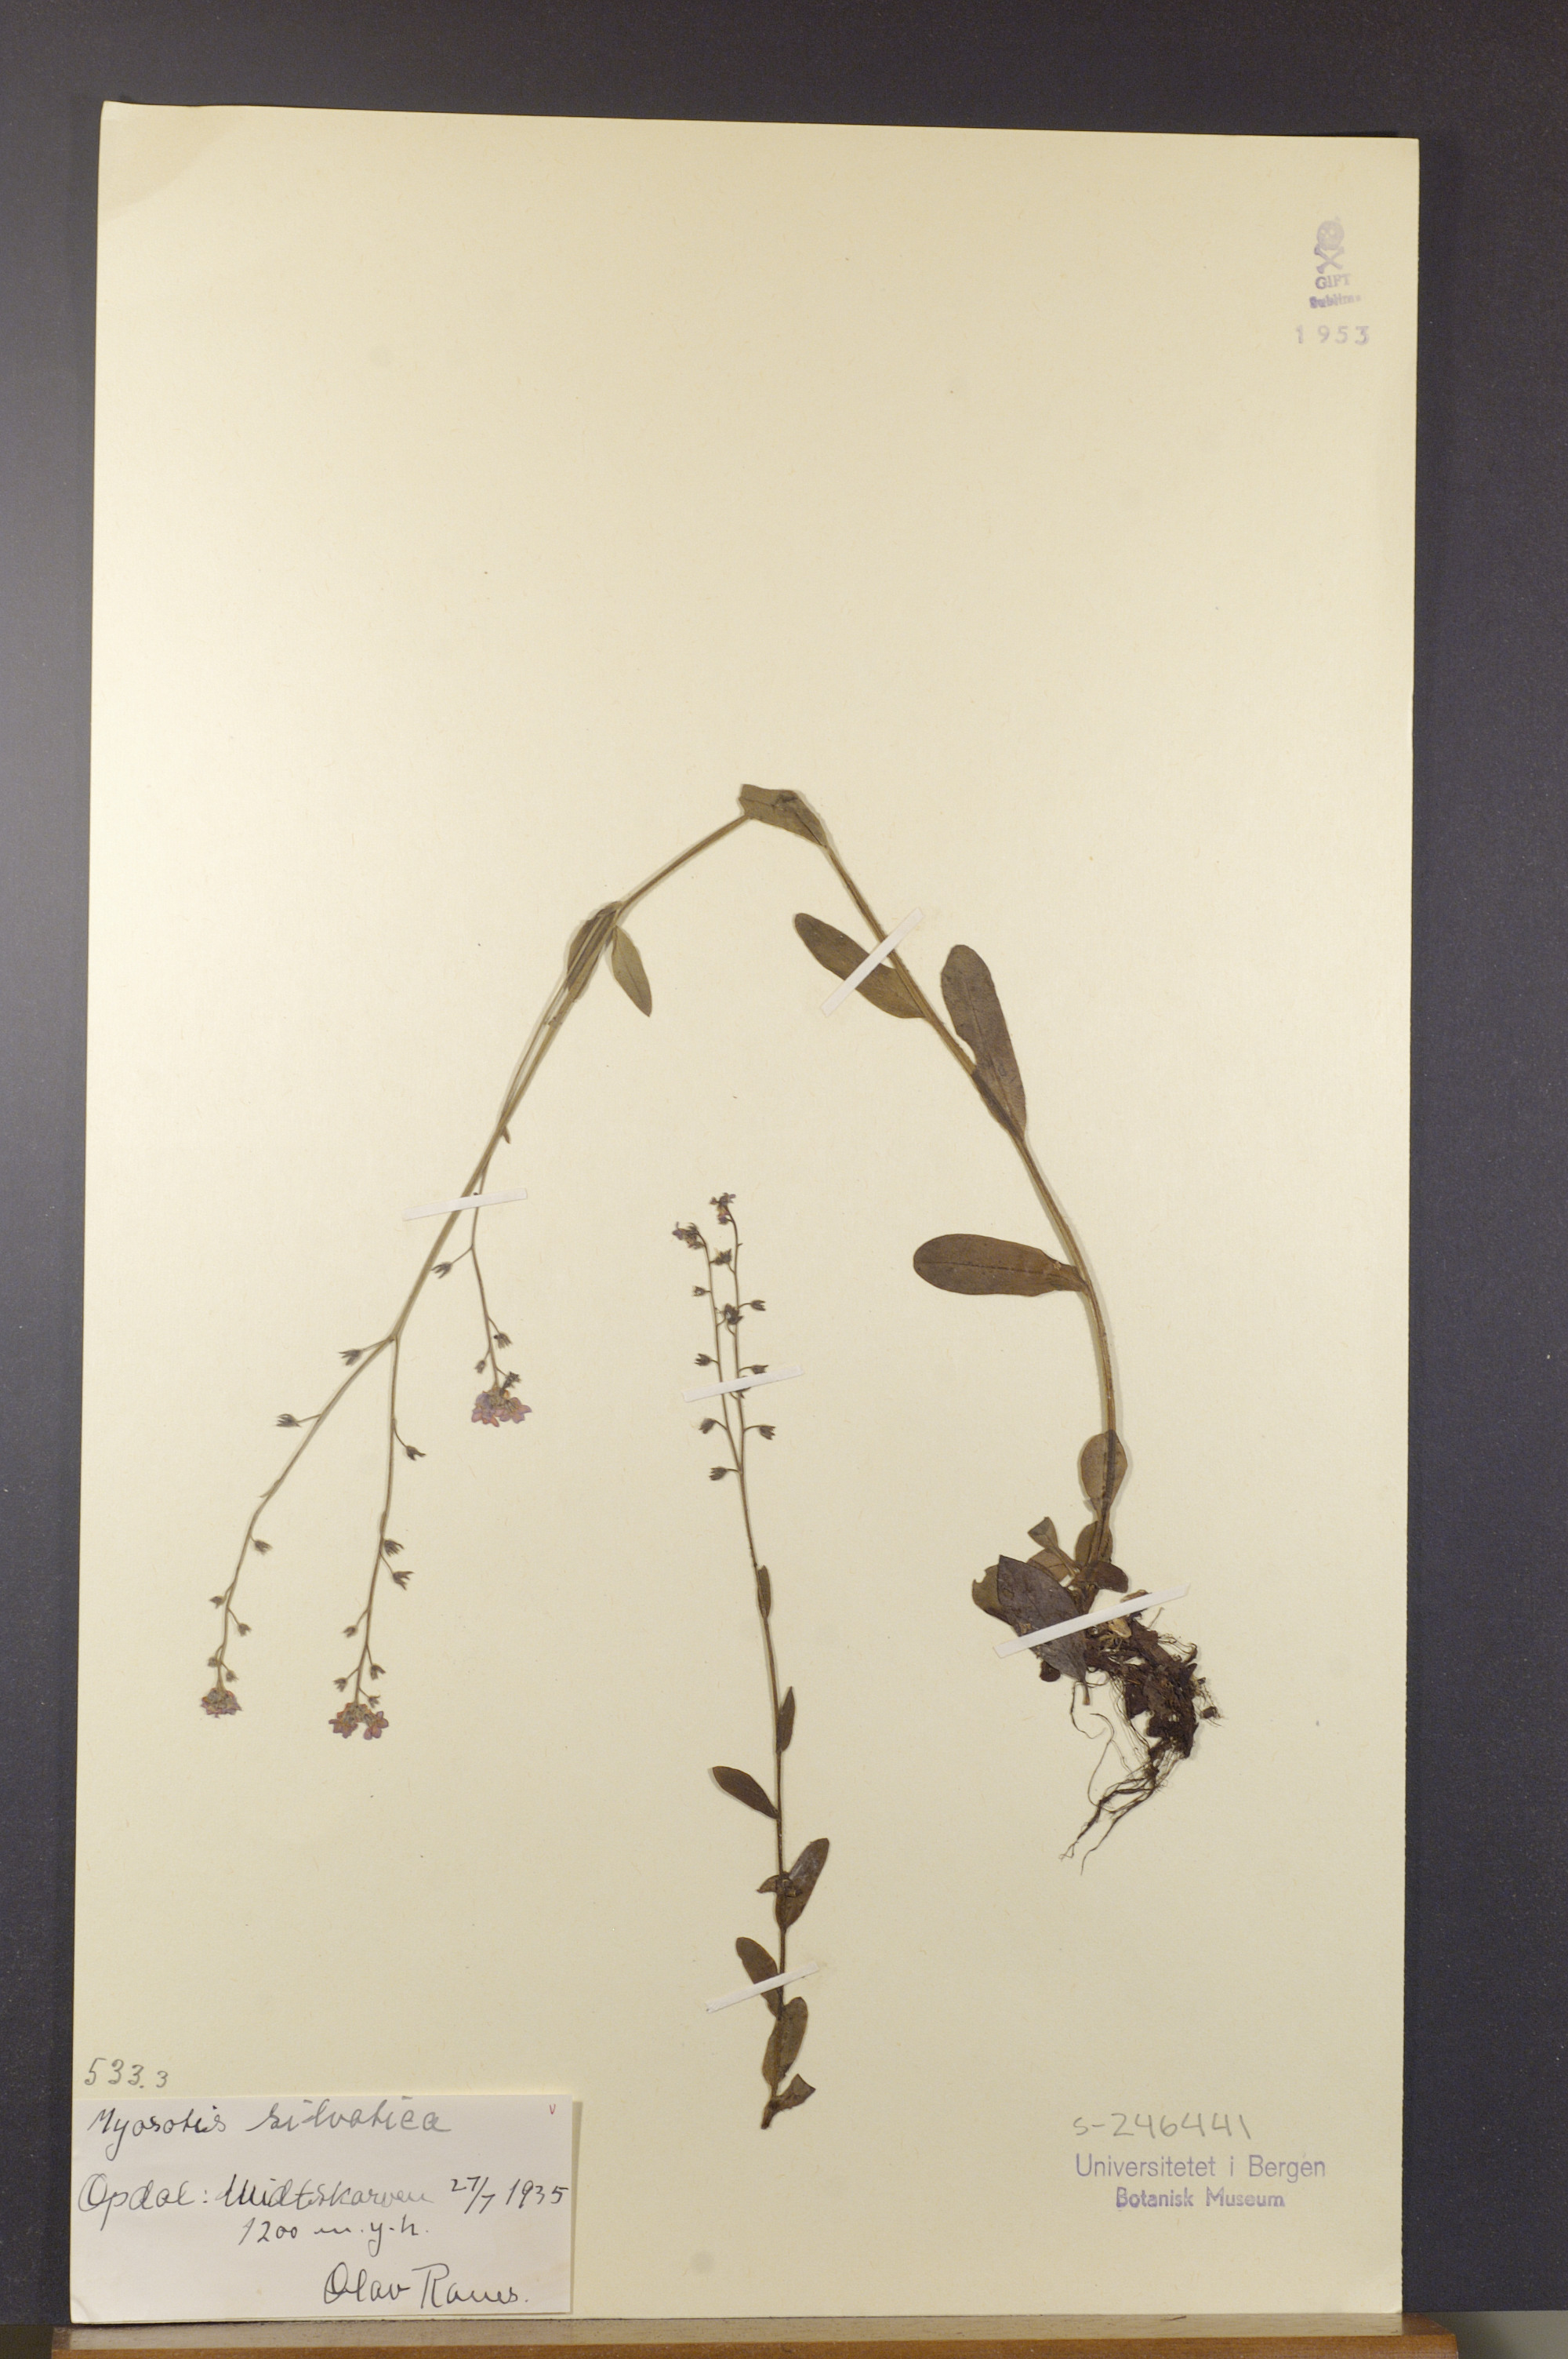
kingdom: Plantae
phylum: Tracheophyta
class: Magnoliopsida
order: Boraginales
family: Boraginaceae
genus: Myosotis
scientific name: Myosotis decumbens
